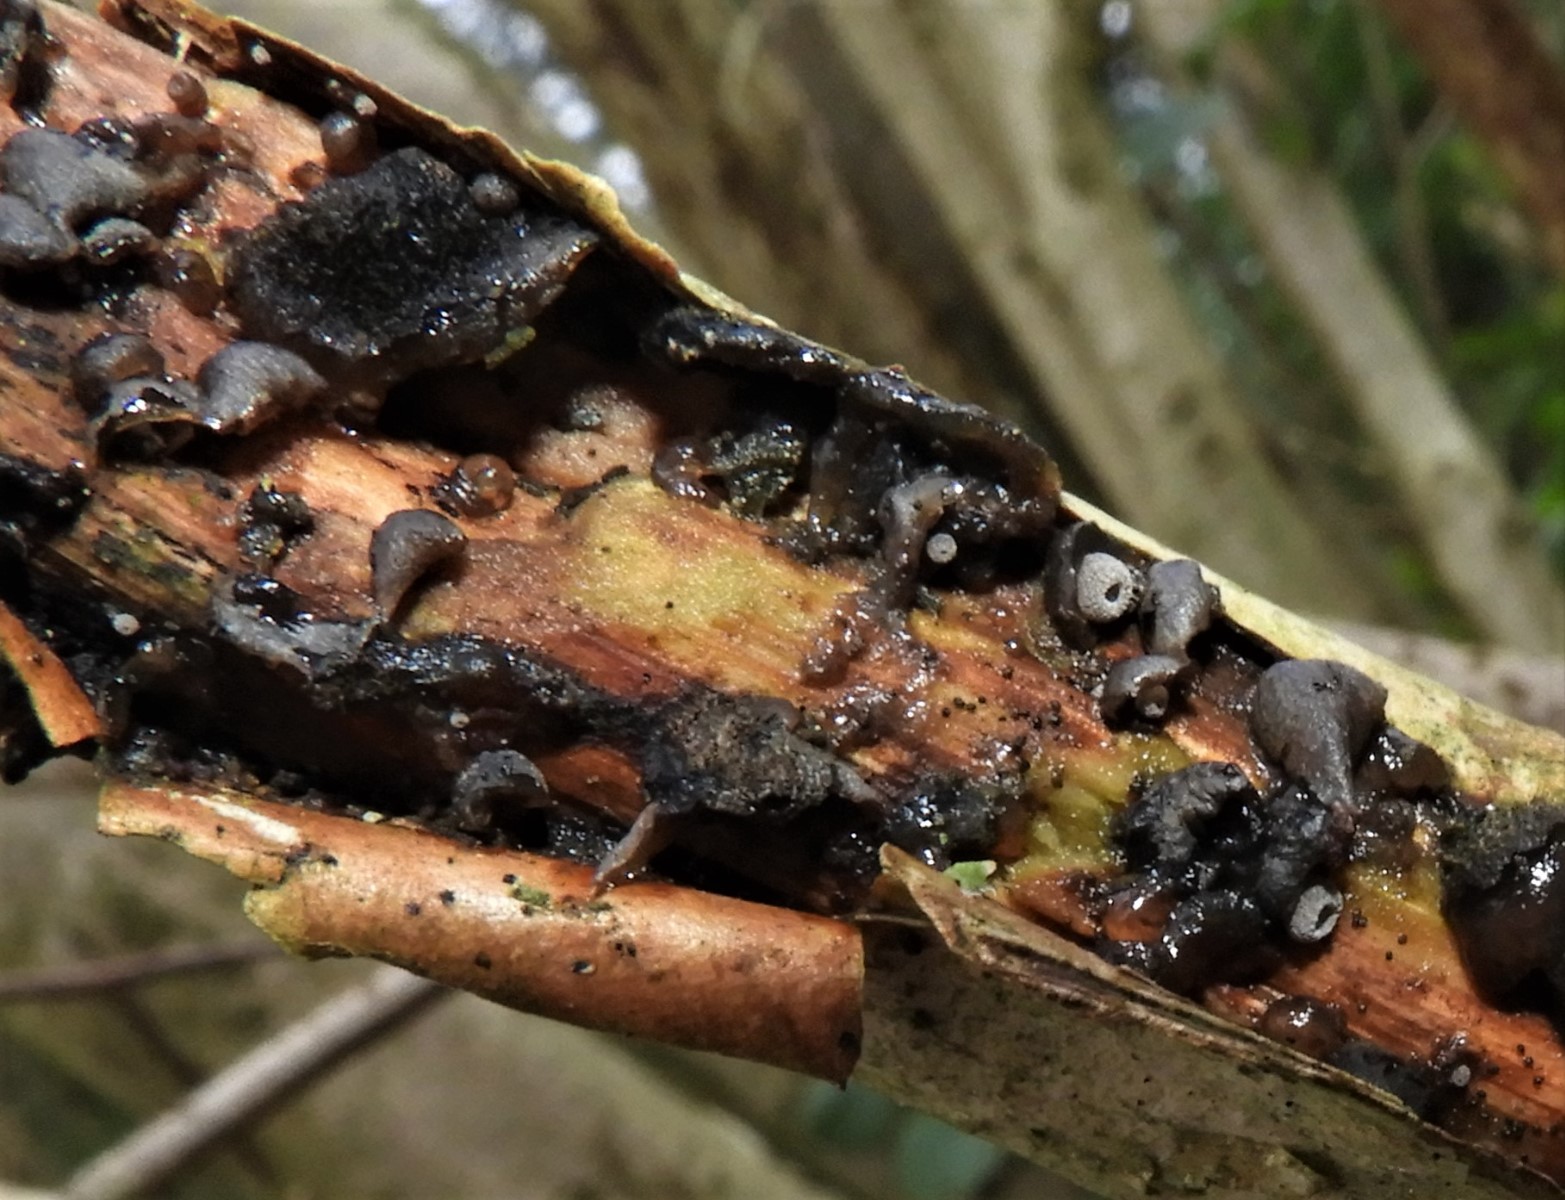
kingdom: Fungi
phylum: Basidiomycota
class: Agaricomycetes
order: Agaricales
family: Pleurotaceae
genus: Resupinatus
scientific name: Resupinatus trichotis
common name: mørkfiltet barkhat
